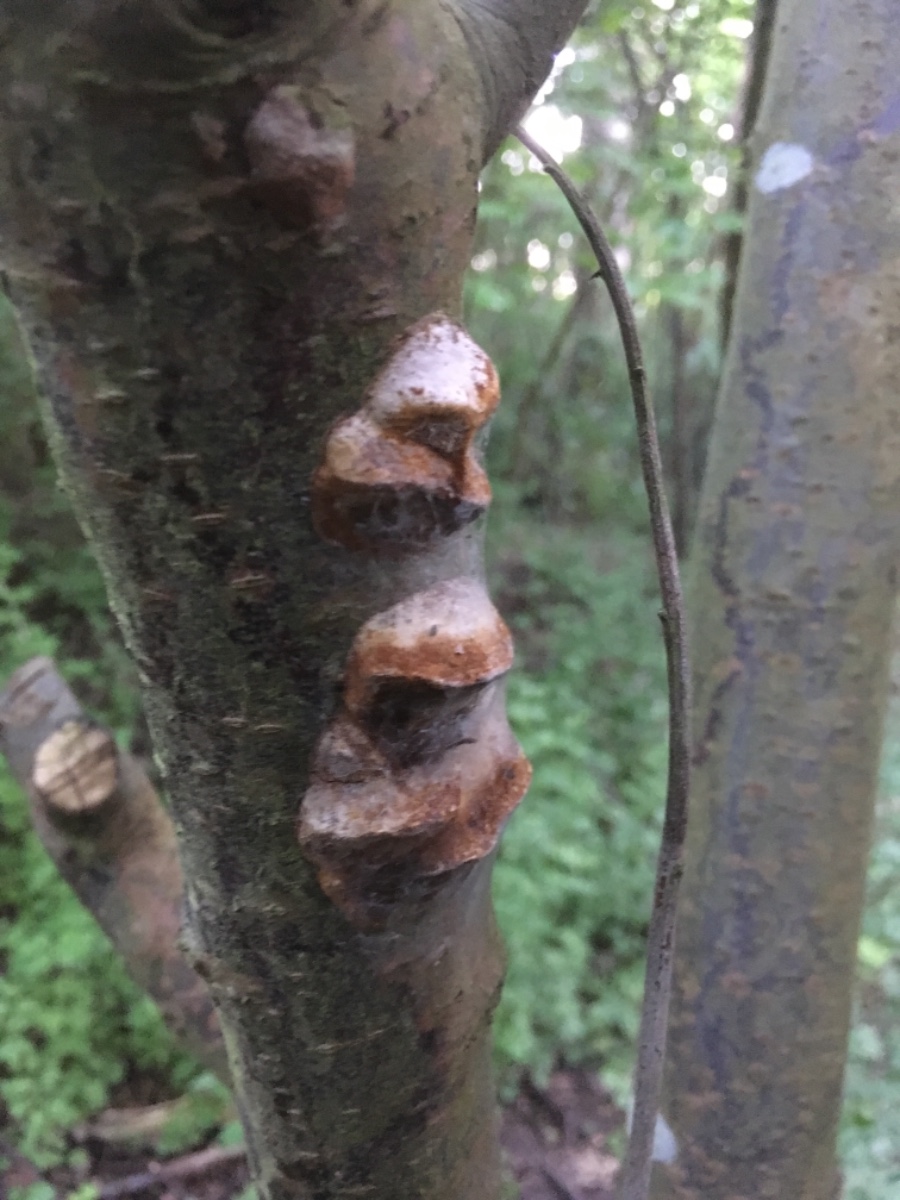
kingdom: Fungi
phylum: Basidiomycota
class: Agaricomycetes
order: Hymenochaetales
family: Hymenochaetaceae
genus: Phellinus
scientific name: Phellinus pomaceus
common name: blomme-ildporesvamp
